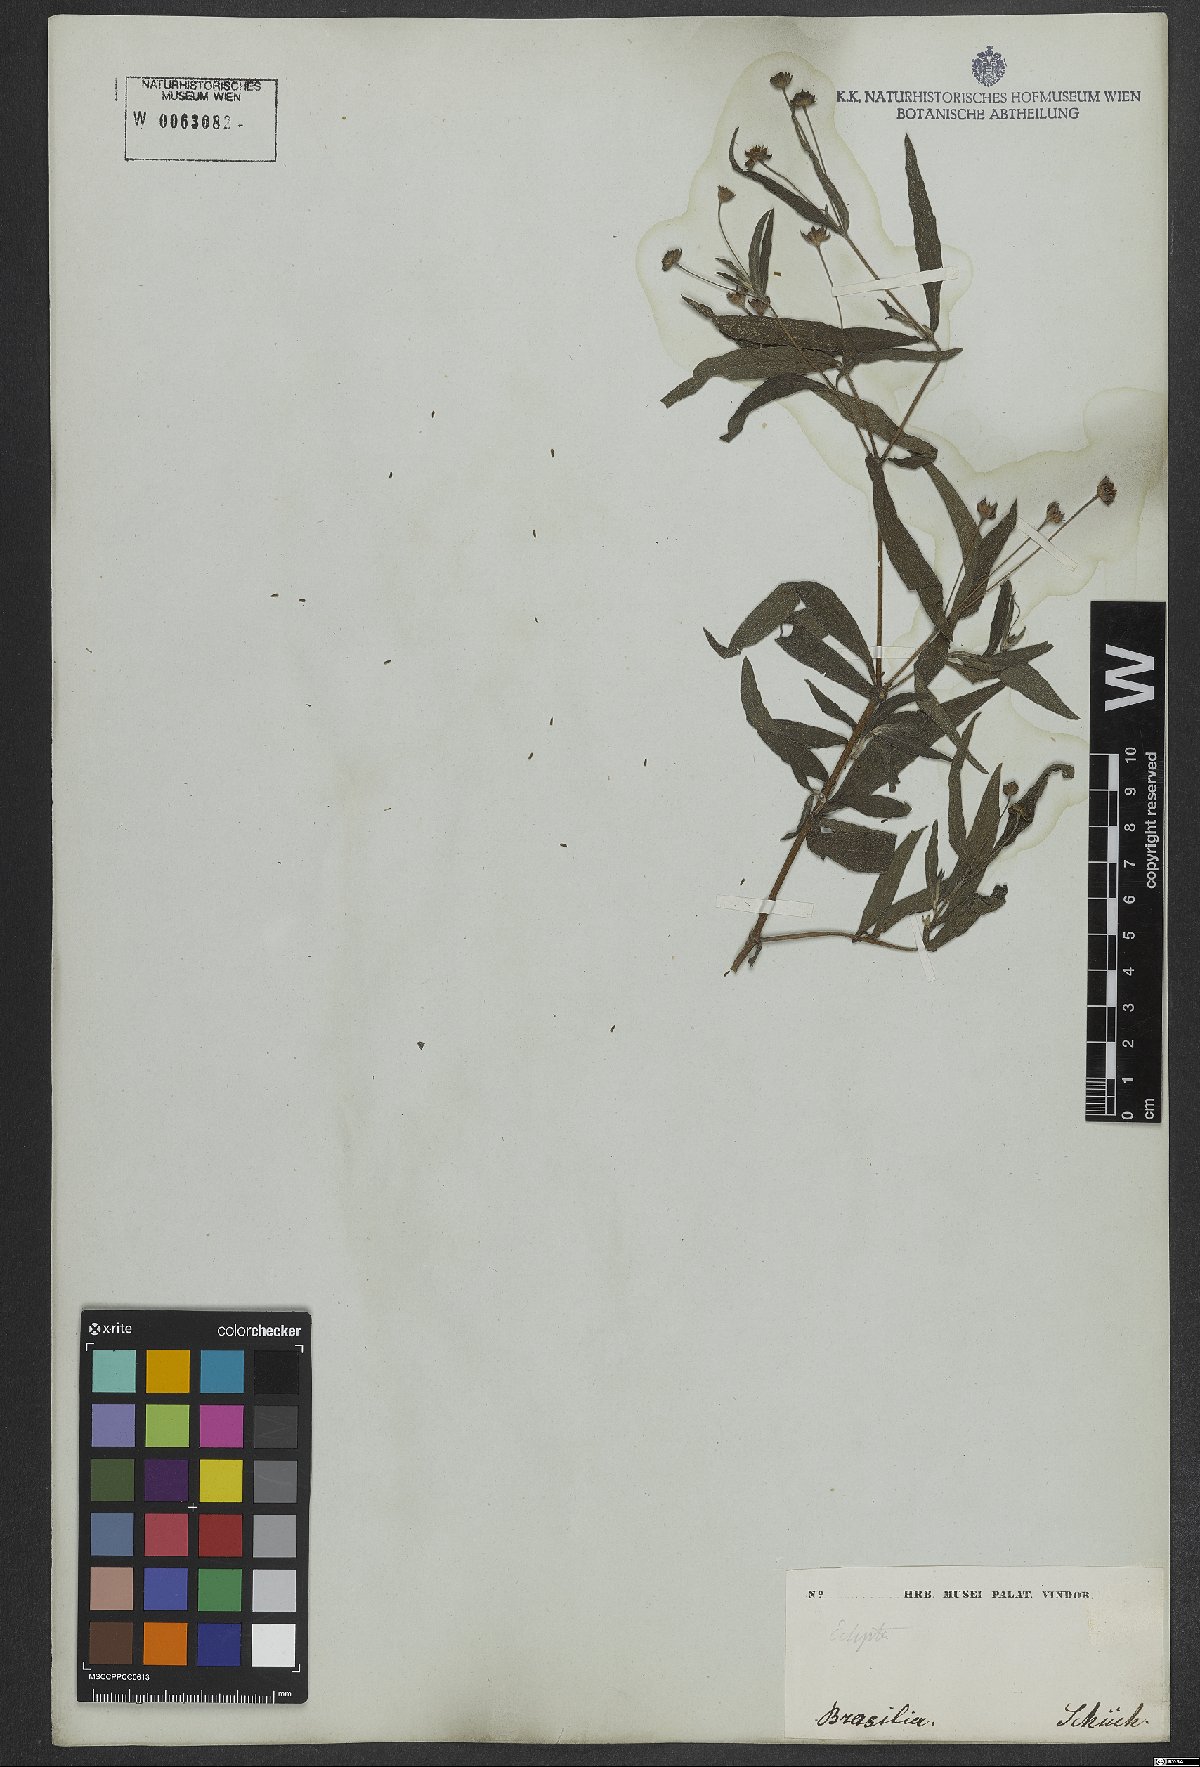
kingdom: Plantae
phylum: Tracheophyta
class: Magnoliopsida
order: Asterales
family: Asteraceae
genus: Eclipta
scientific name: Eclipta alba
